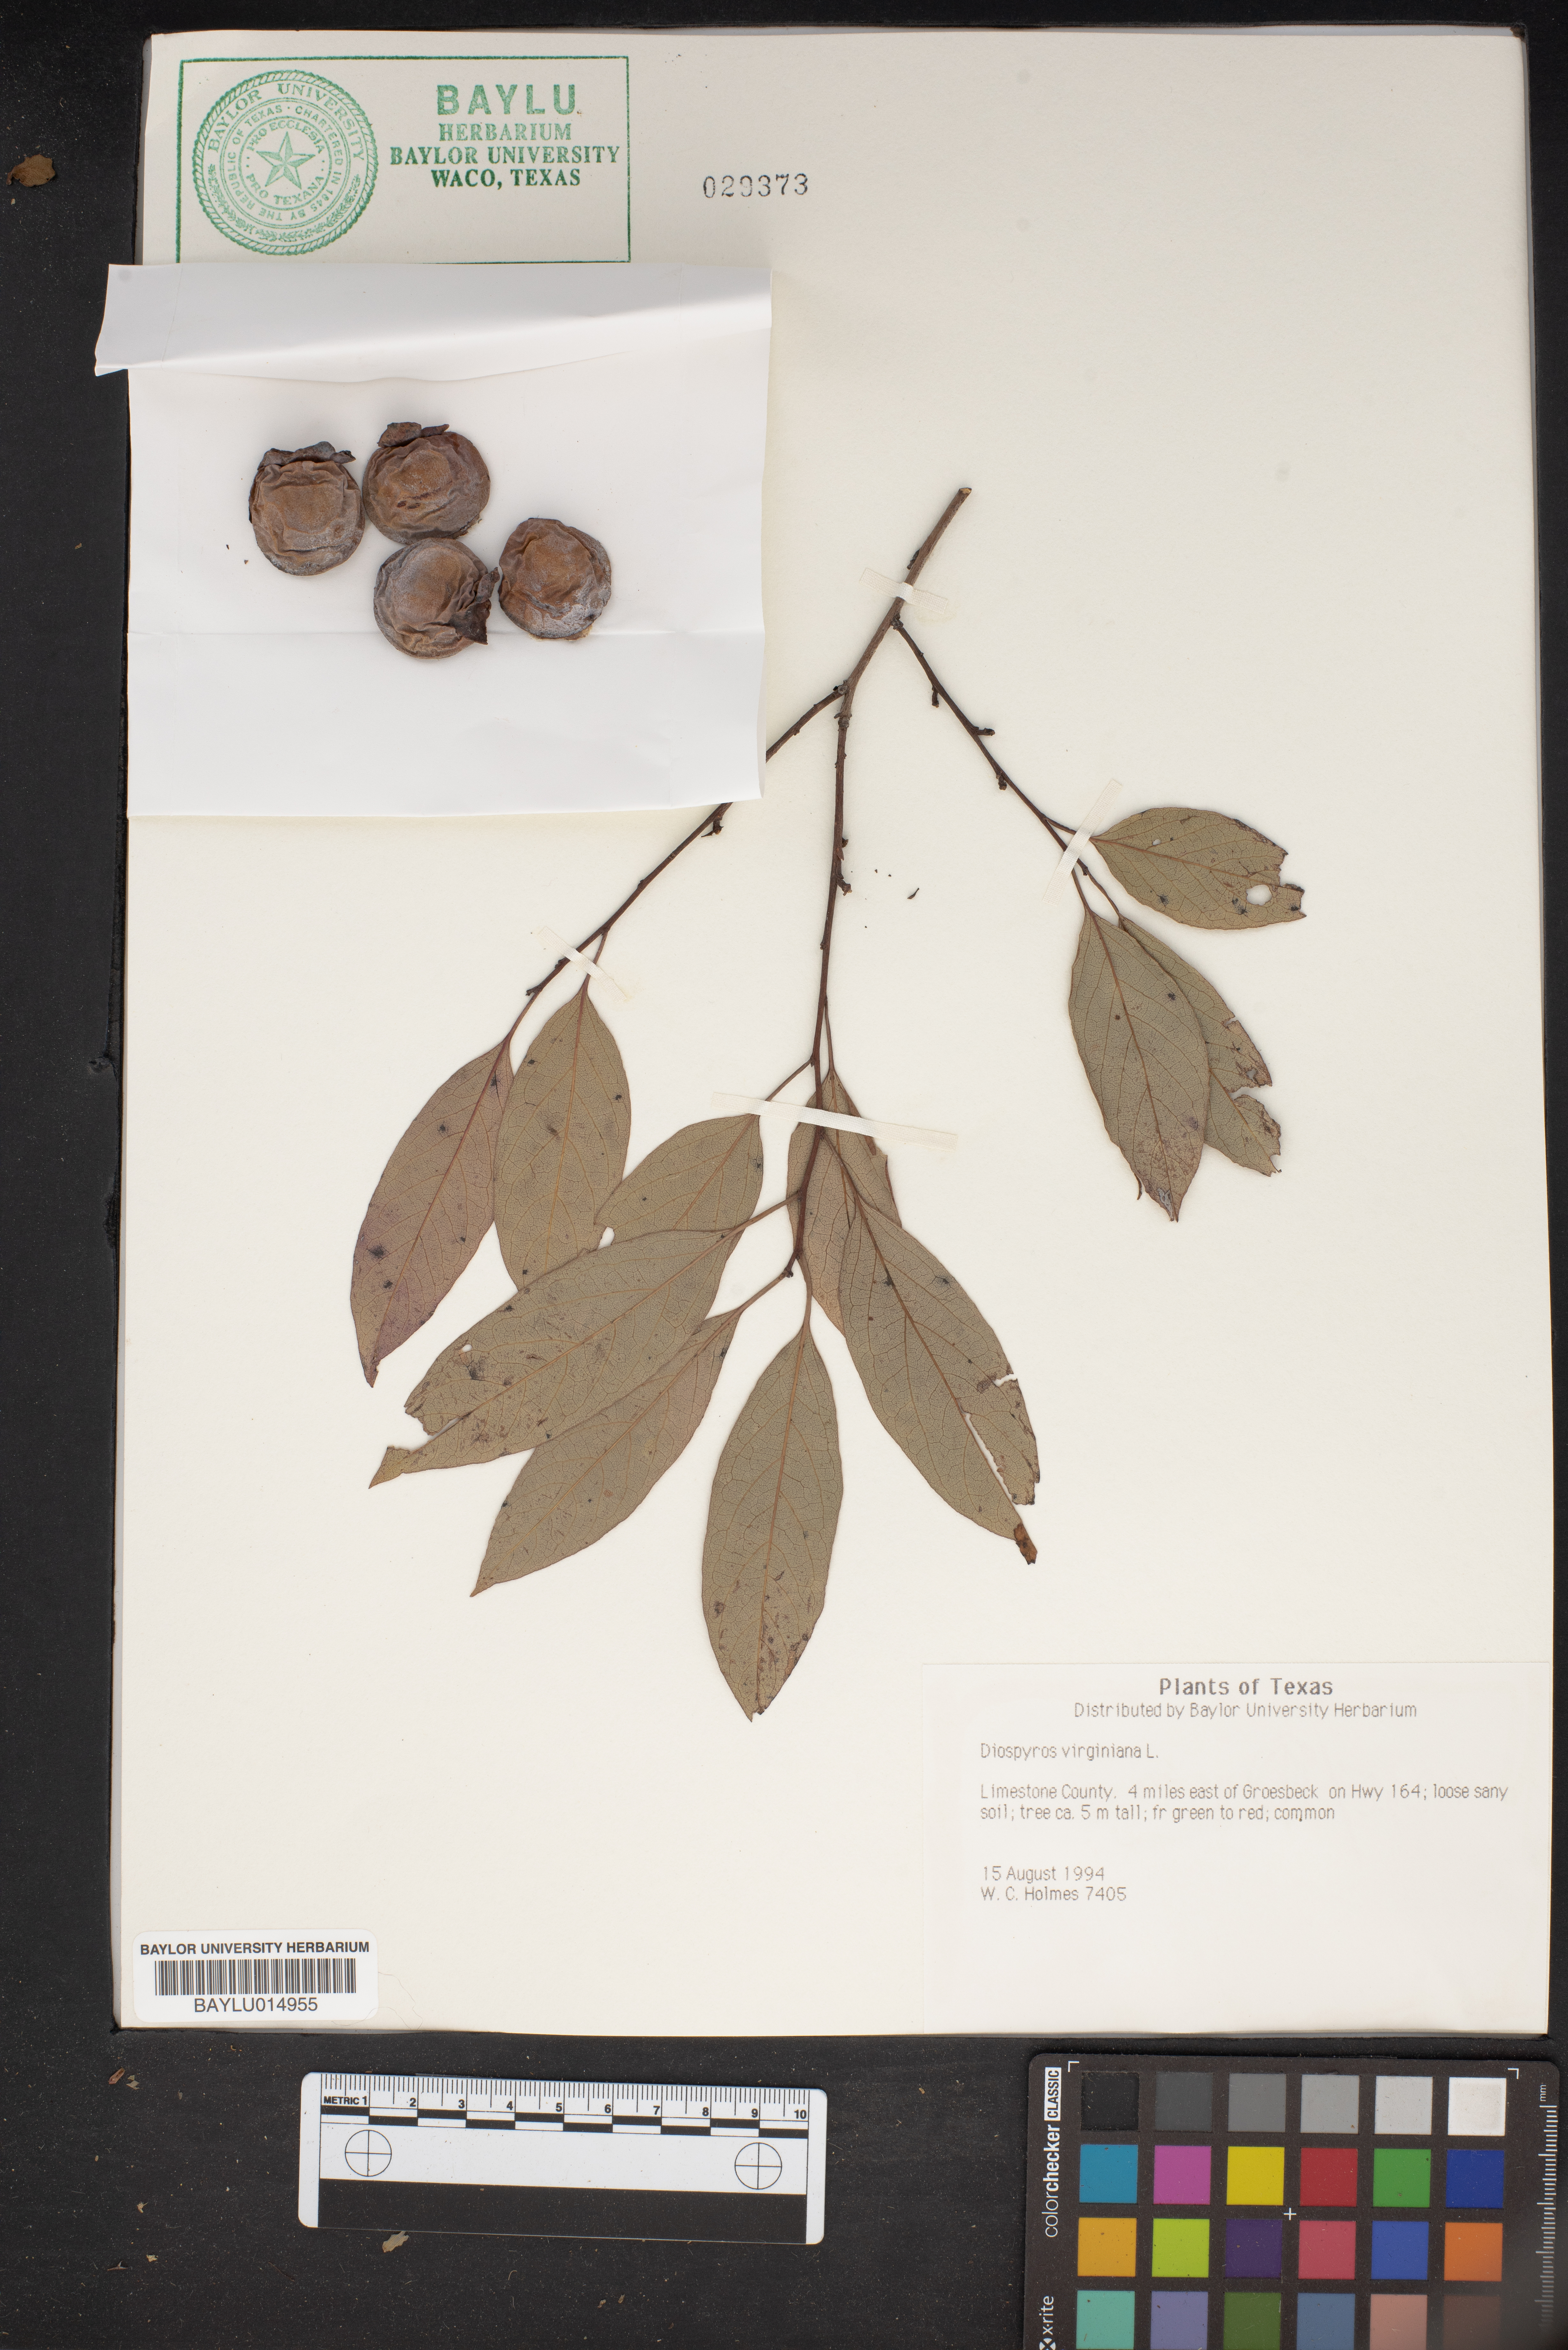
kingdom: Plantae
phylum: Tracheophyta
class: Magnoliopsida
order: Ericales
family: Ebenaceae
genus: Diospyros
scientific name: Diospyros virginiana
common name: Persimmon
